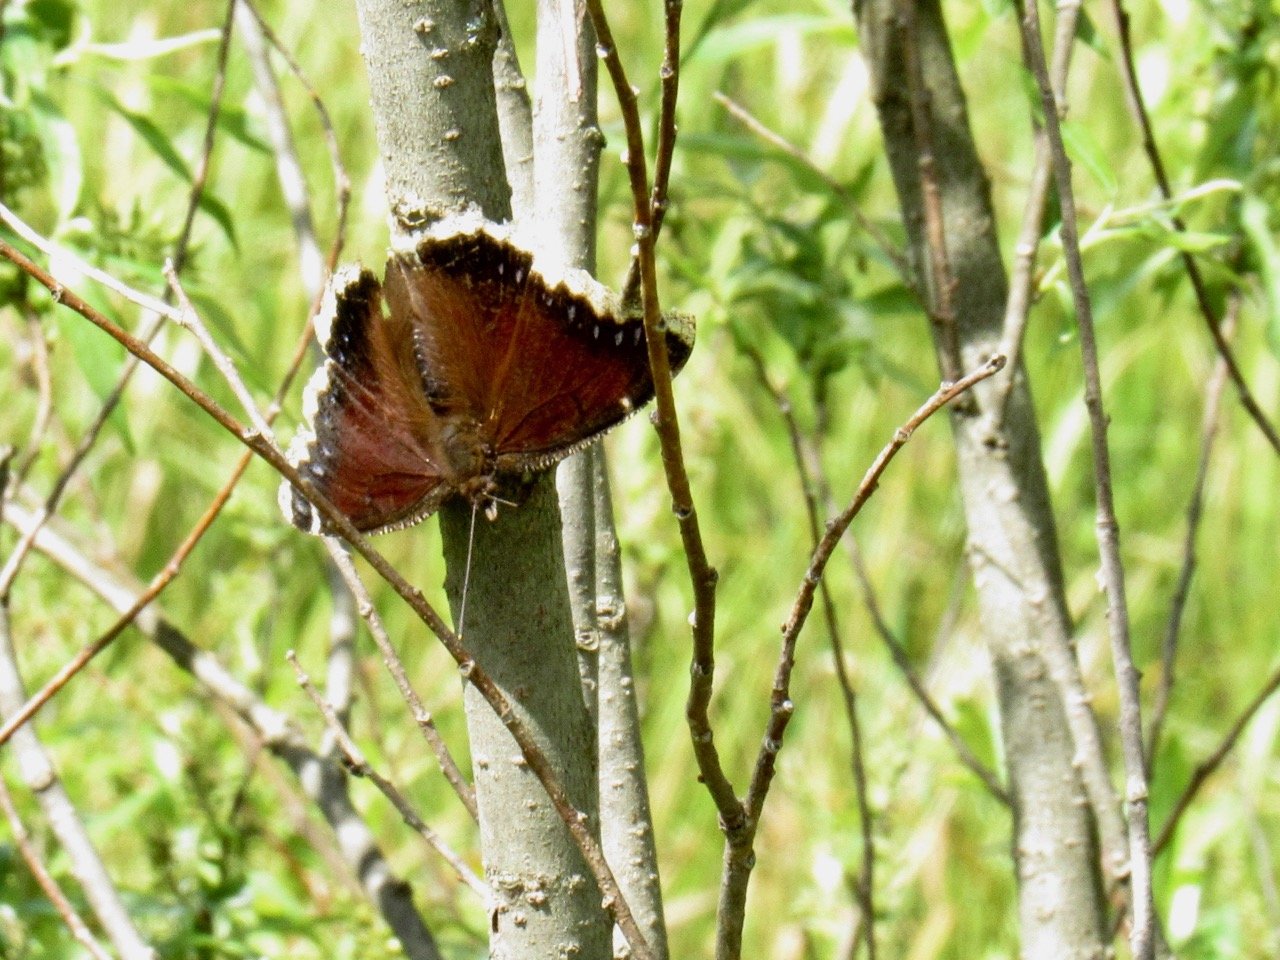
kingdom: Animalia
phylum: Arthropoda
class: Insecta
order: Lepidoptera
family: Nymphalidae
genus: Nymphalis
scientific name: Nymphalis antiopa
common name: Mourning Cloak
